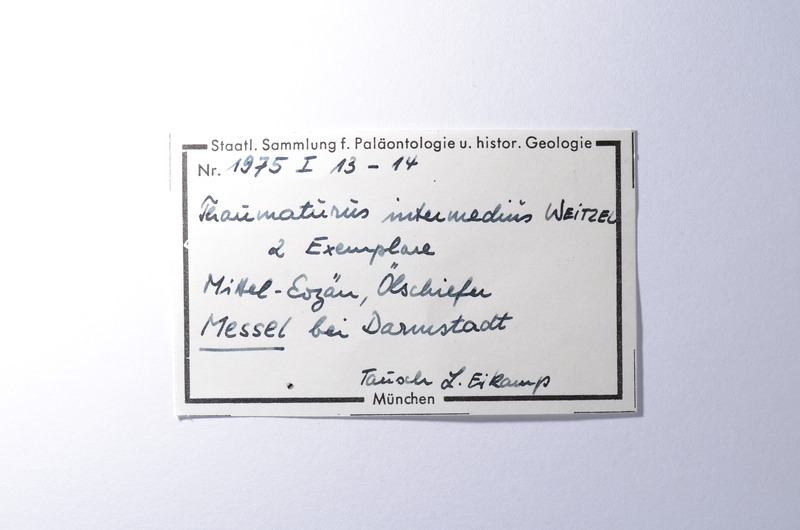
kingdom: Animalia
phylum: Chordata
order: Salmoniformes
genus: Thaumaturus
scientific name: Thaumaturus
